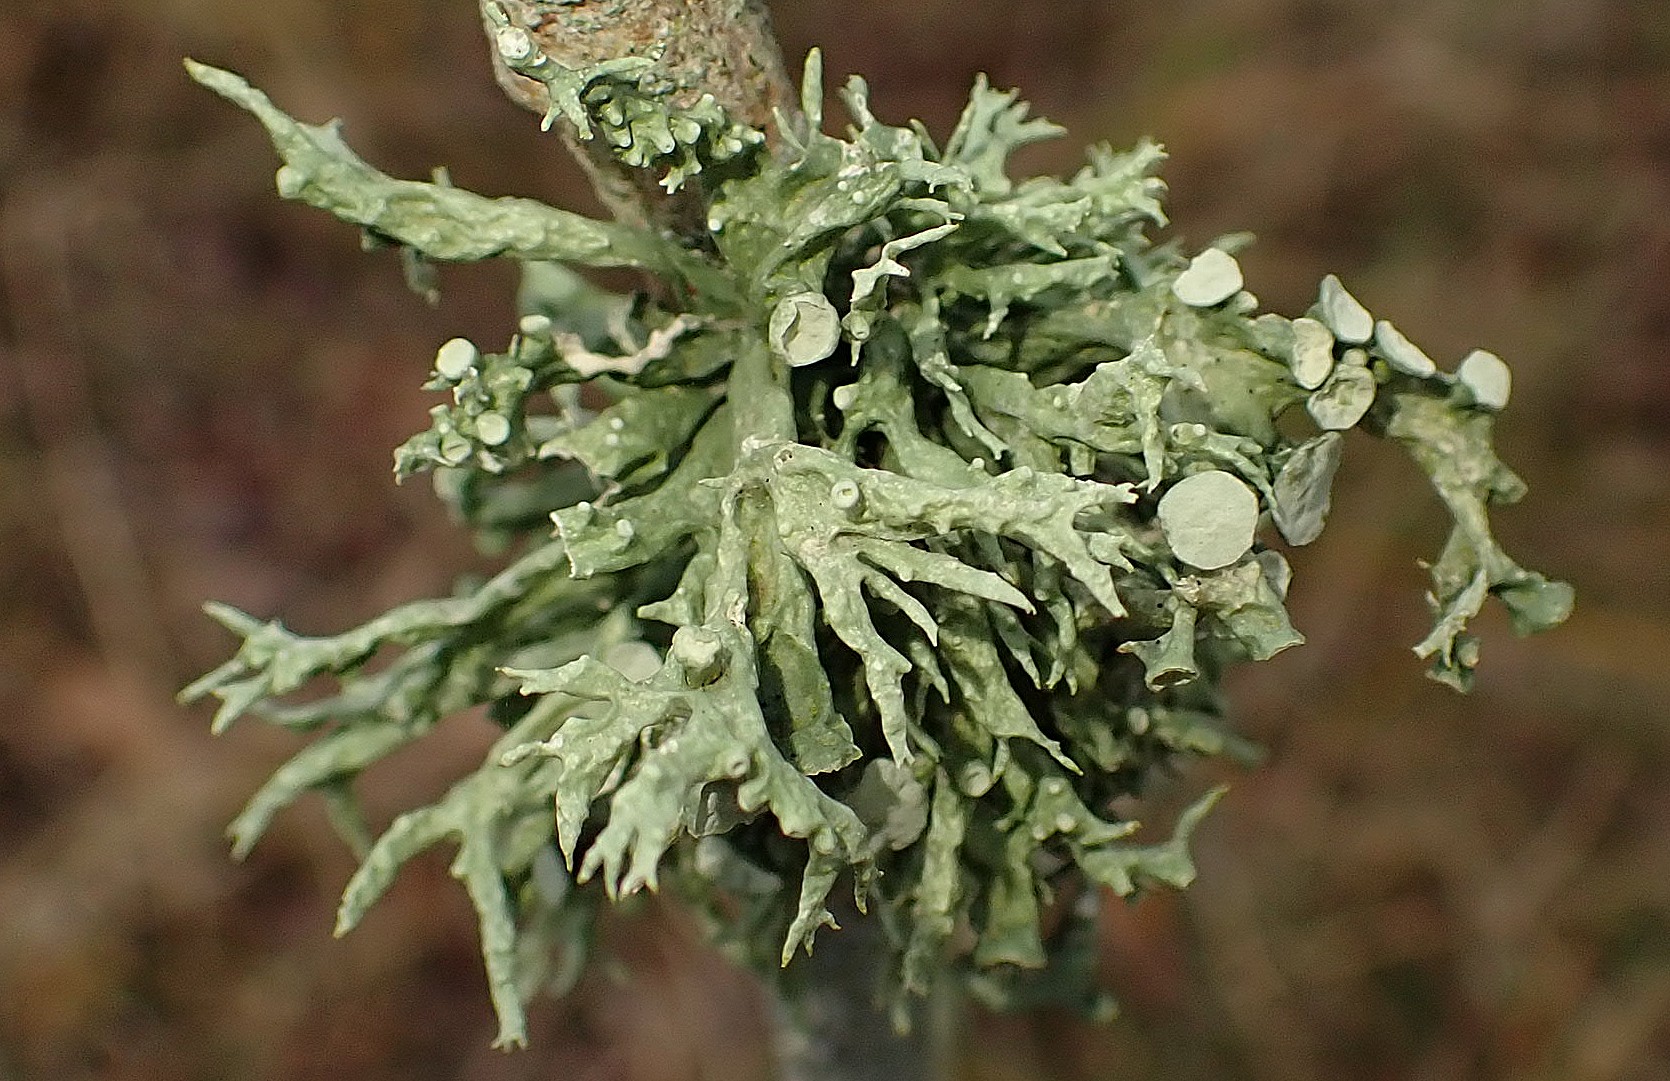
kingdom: Fungi
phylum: Ascomycota
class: Lecanoromycetes
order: Lecanorales
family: Ramalinaceae
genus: Ramalina
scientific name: Ramalina fastigiata
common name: tue-grenlav
